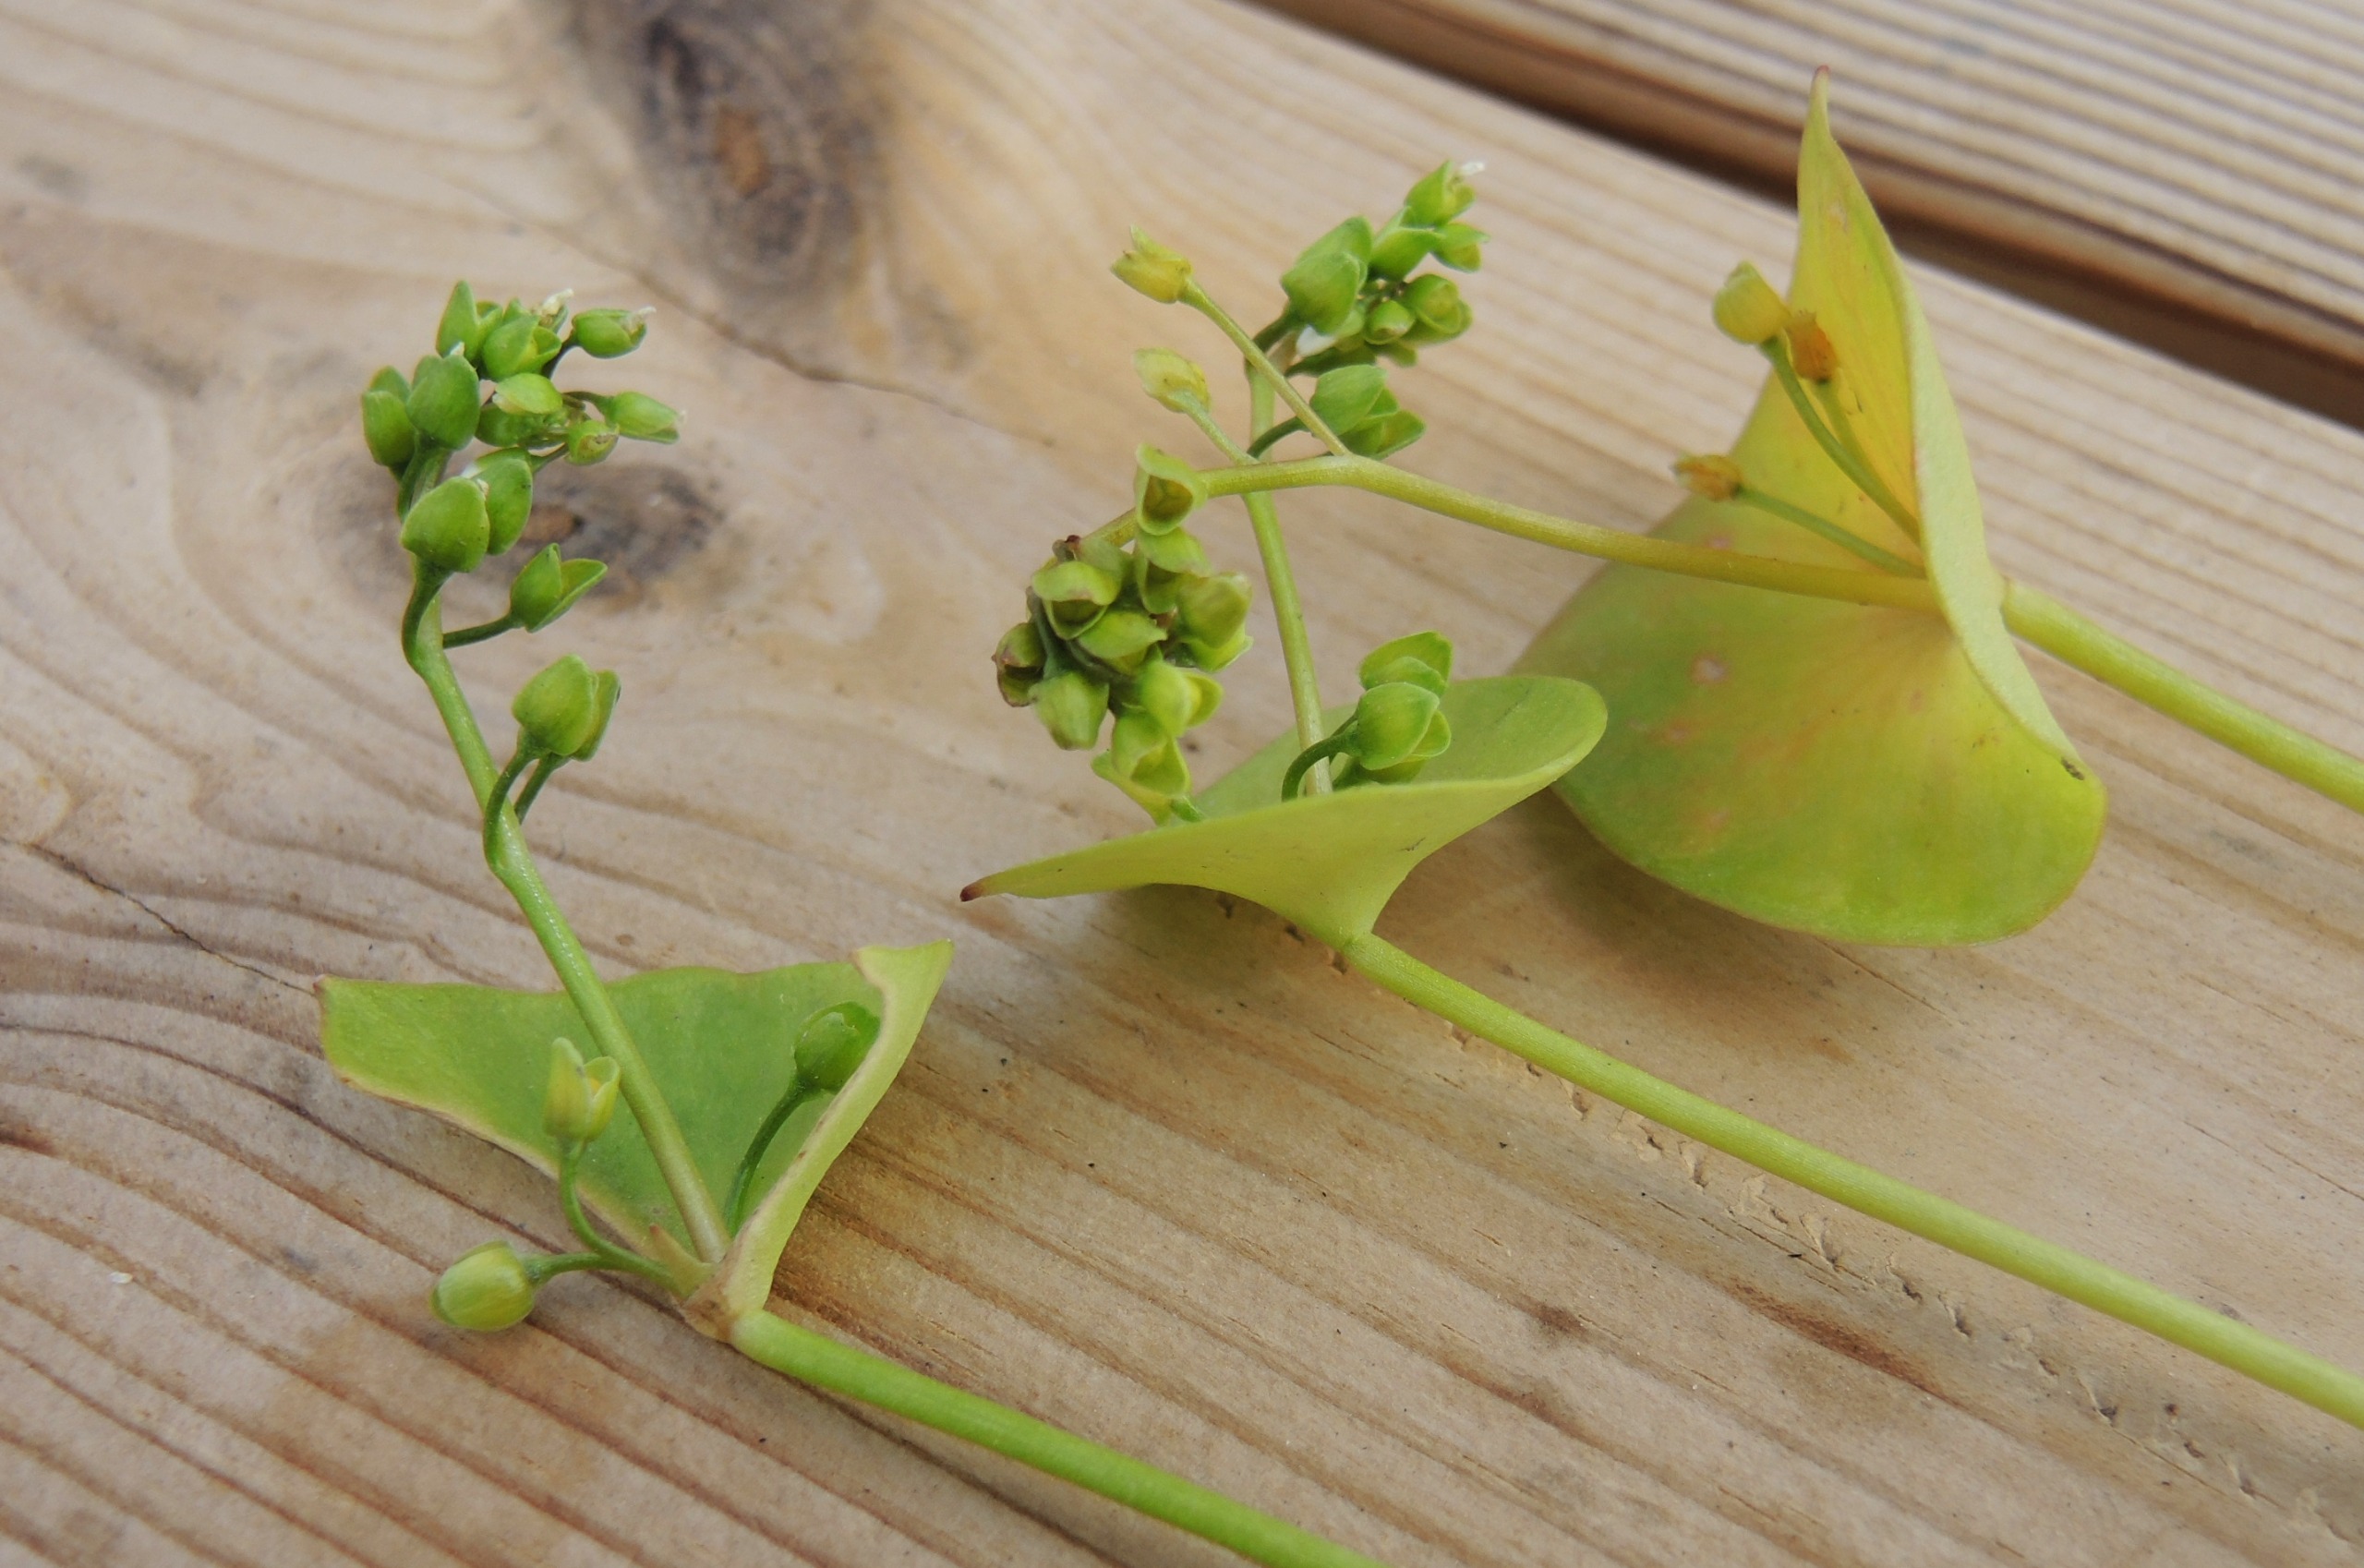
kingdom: Plantae
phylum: Tracheophyta
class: Magnoliopsida
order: Caryophyllales
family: Montiaceae
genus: Claytonia
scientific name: Claytonia perfoliata
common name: Spiselig vinterportulak
